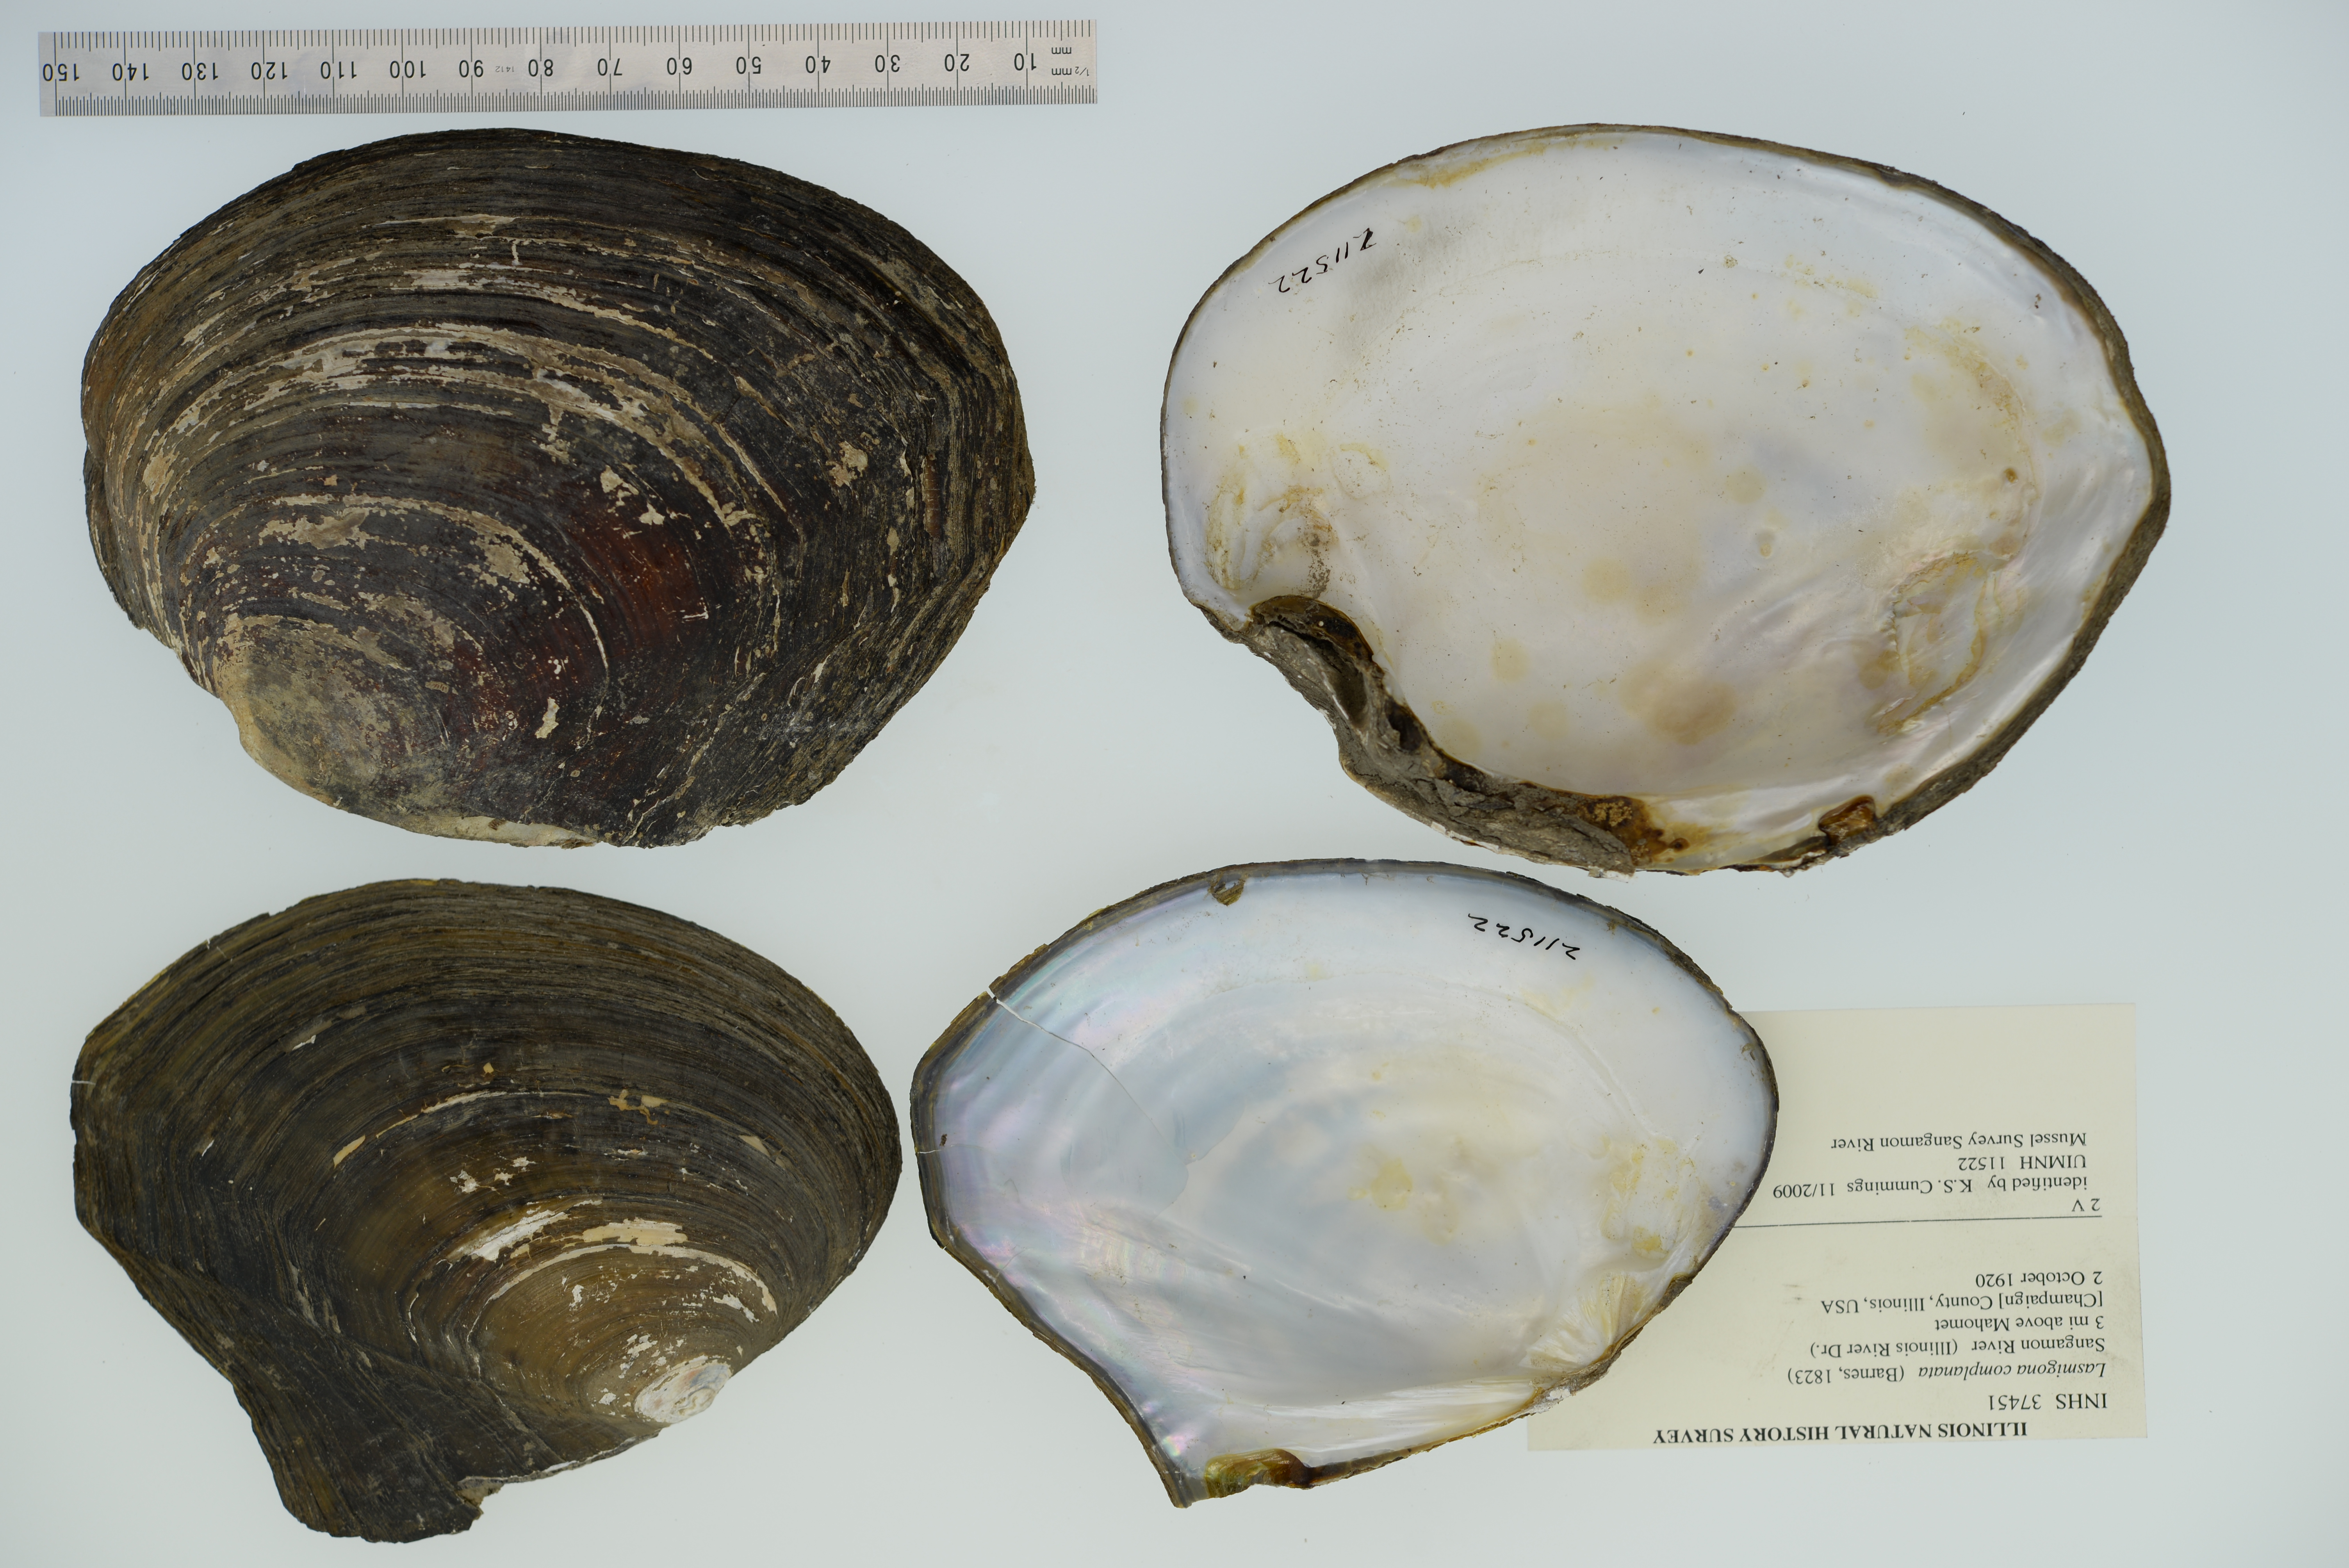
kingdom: Animalia
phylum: Mollusca
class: Bivalvia
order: Unionida
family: Unionidae
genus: Lasmigona
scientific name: Lasmigona complanata
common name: White heelsplitter
